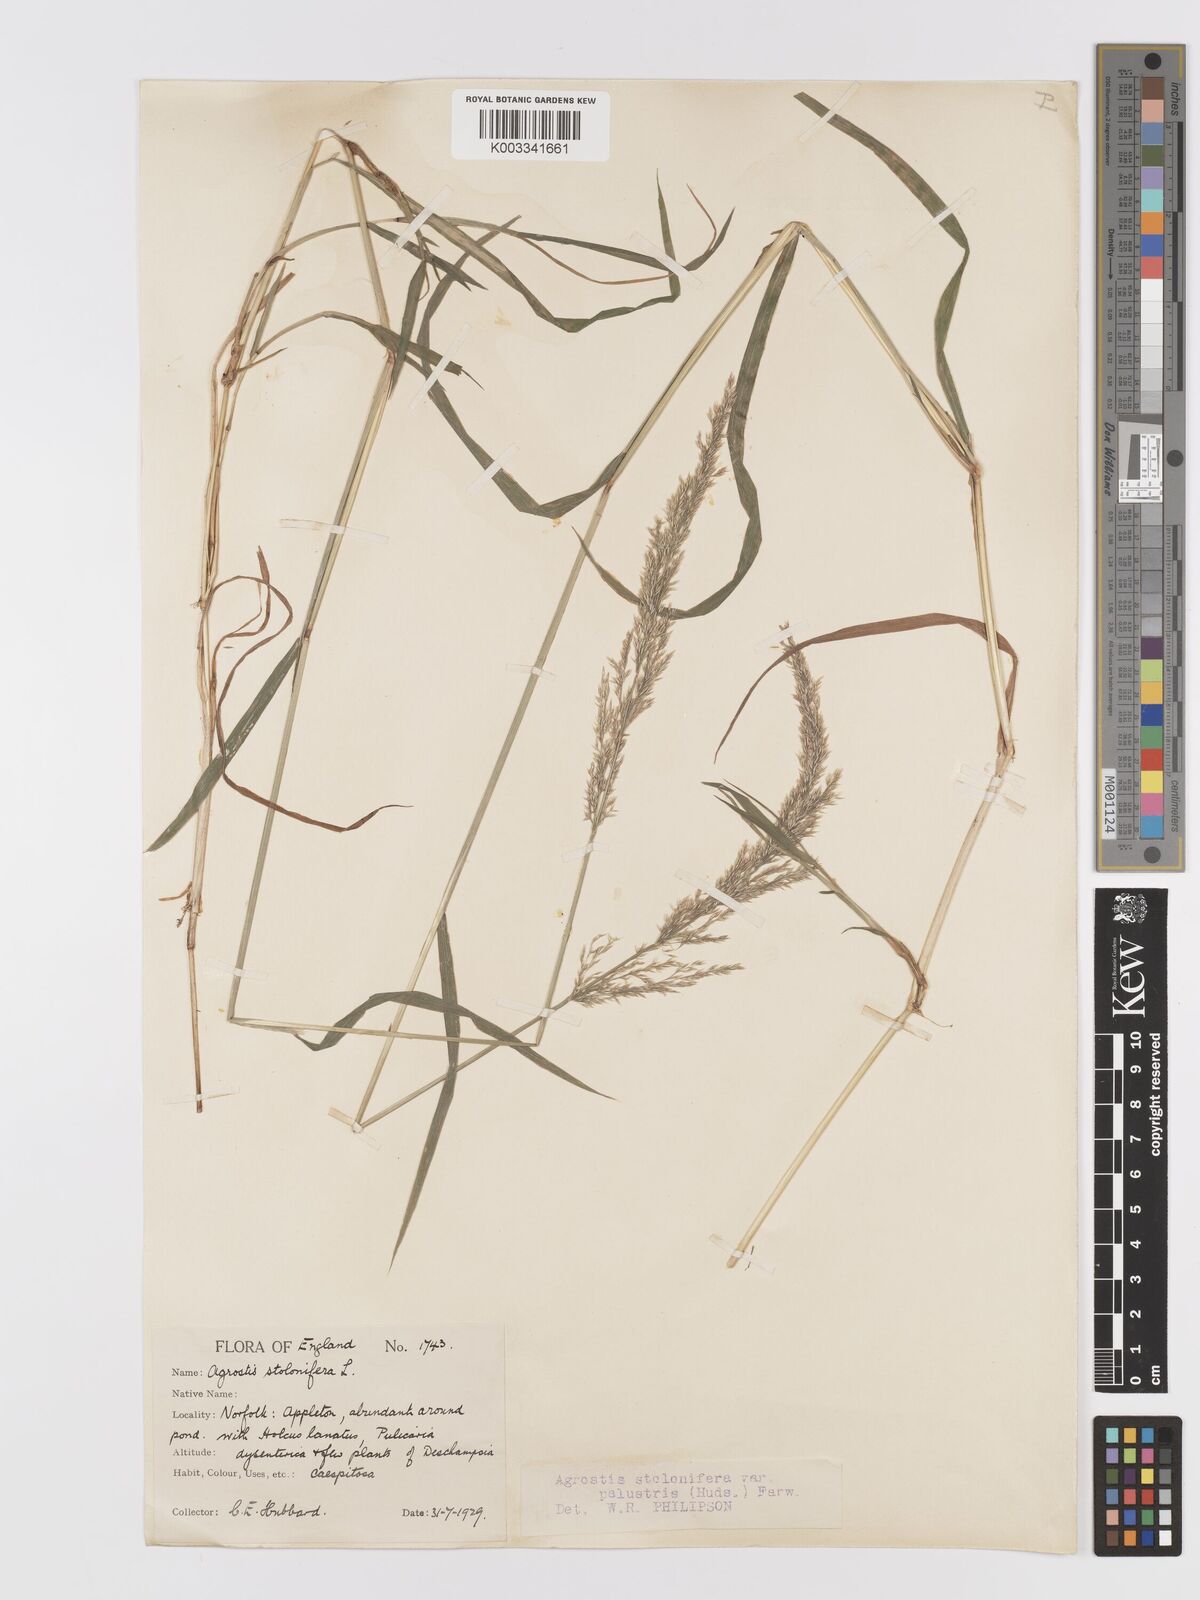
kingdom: Plantae
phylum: Tracheophyta
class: Liliopsida
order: Poales
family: Poaceae
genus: Agrostis
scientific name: Agrostis stolonifera
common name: Creeping bentgrass
